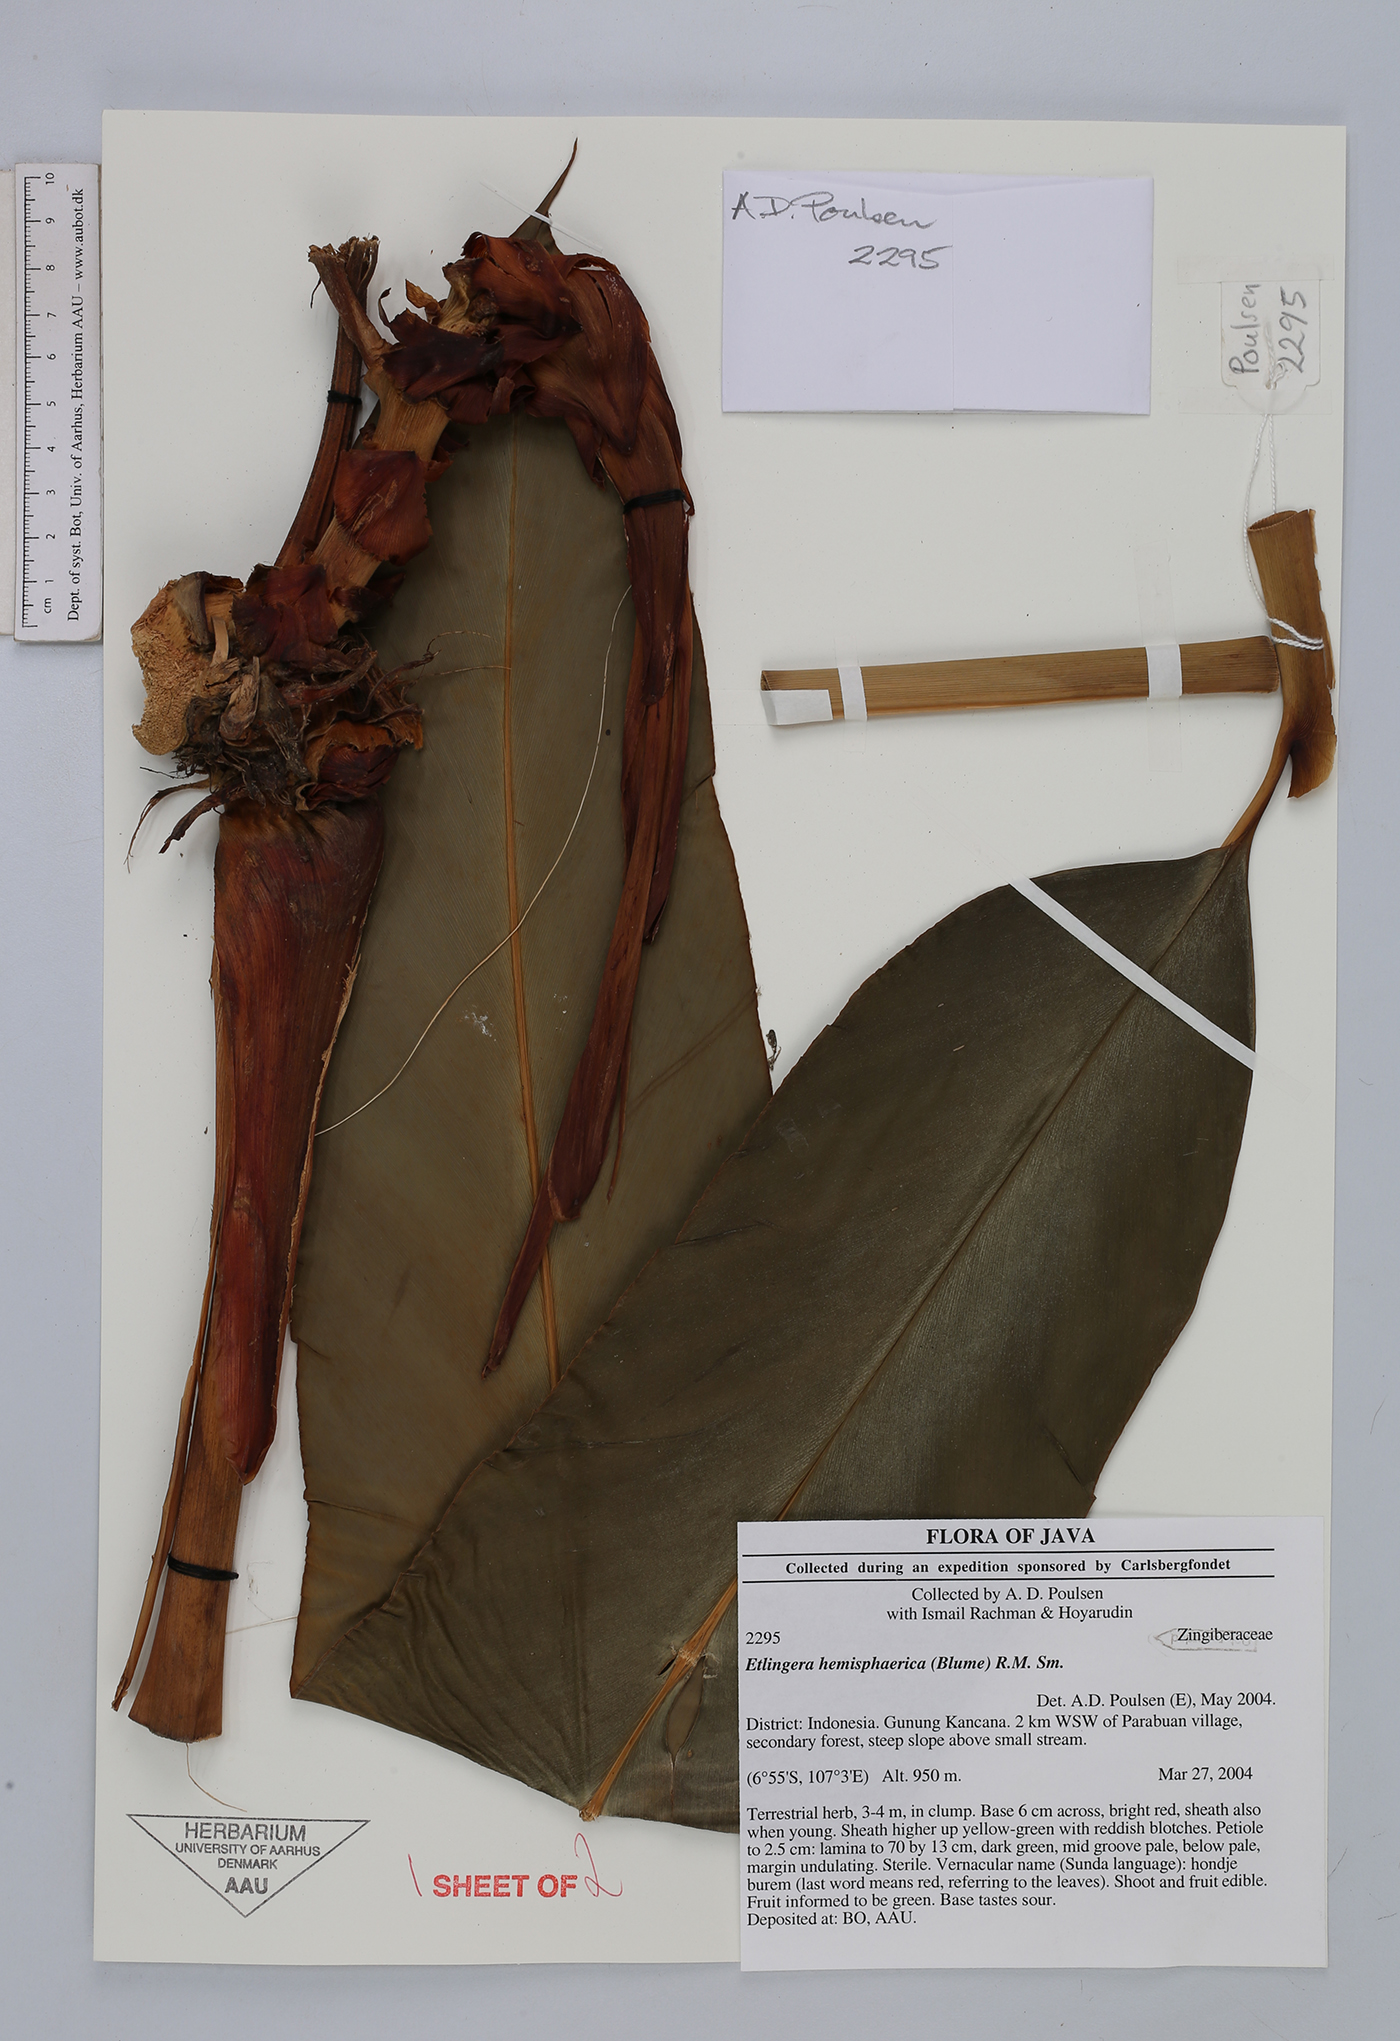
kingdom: Plantae
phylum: Tracheophyta
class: Liliopsida
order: Zingiberales
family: Zingiberaceae
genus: Etlingera
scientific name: Etlingera hemisphaerica
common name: Black tulip
